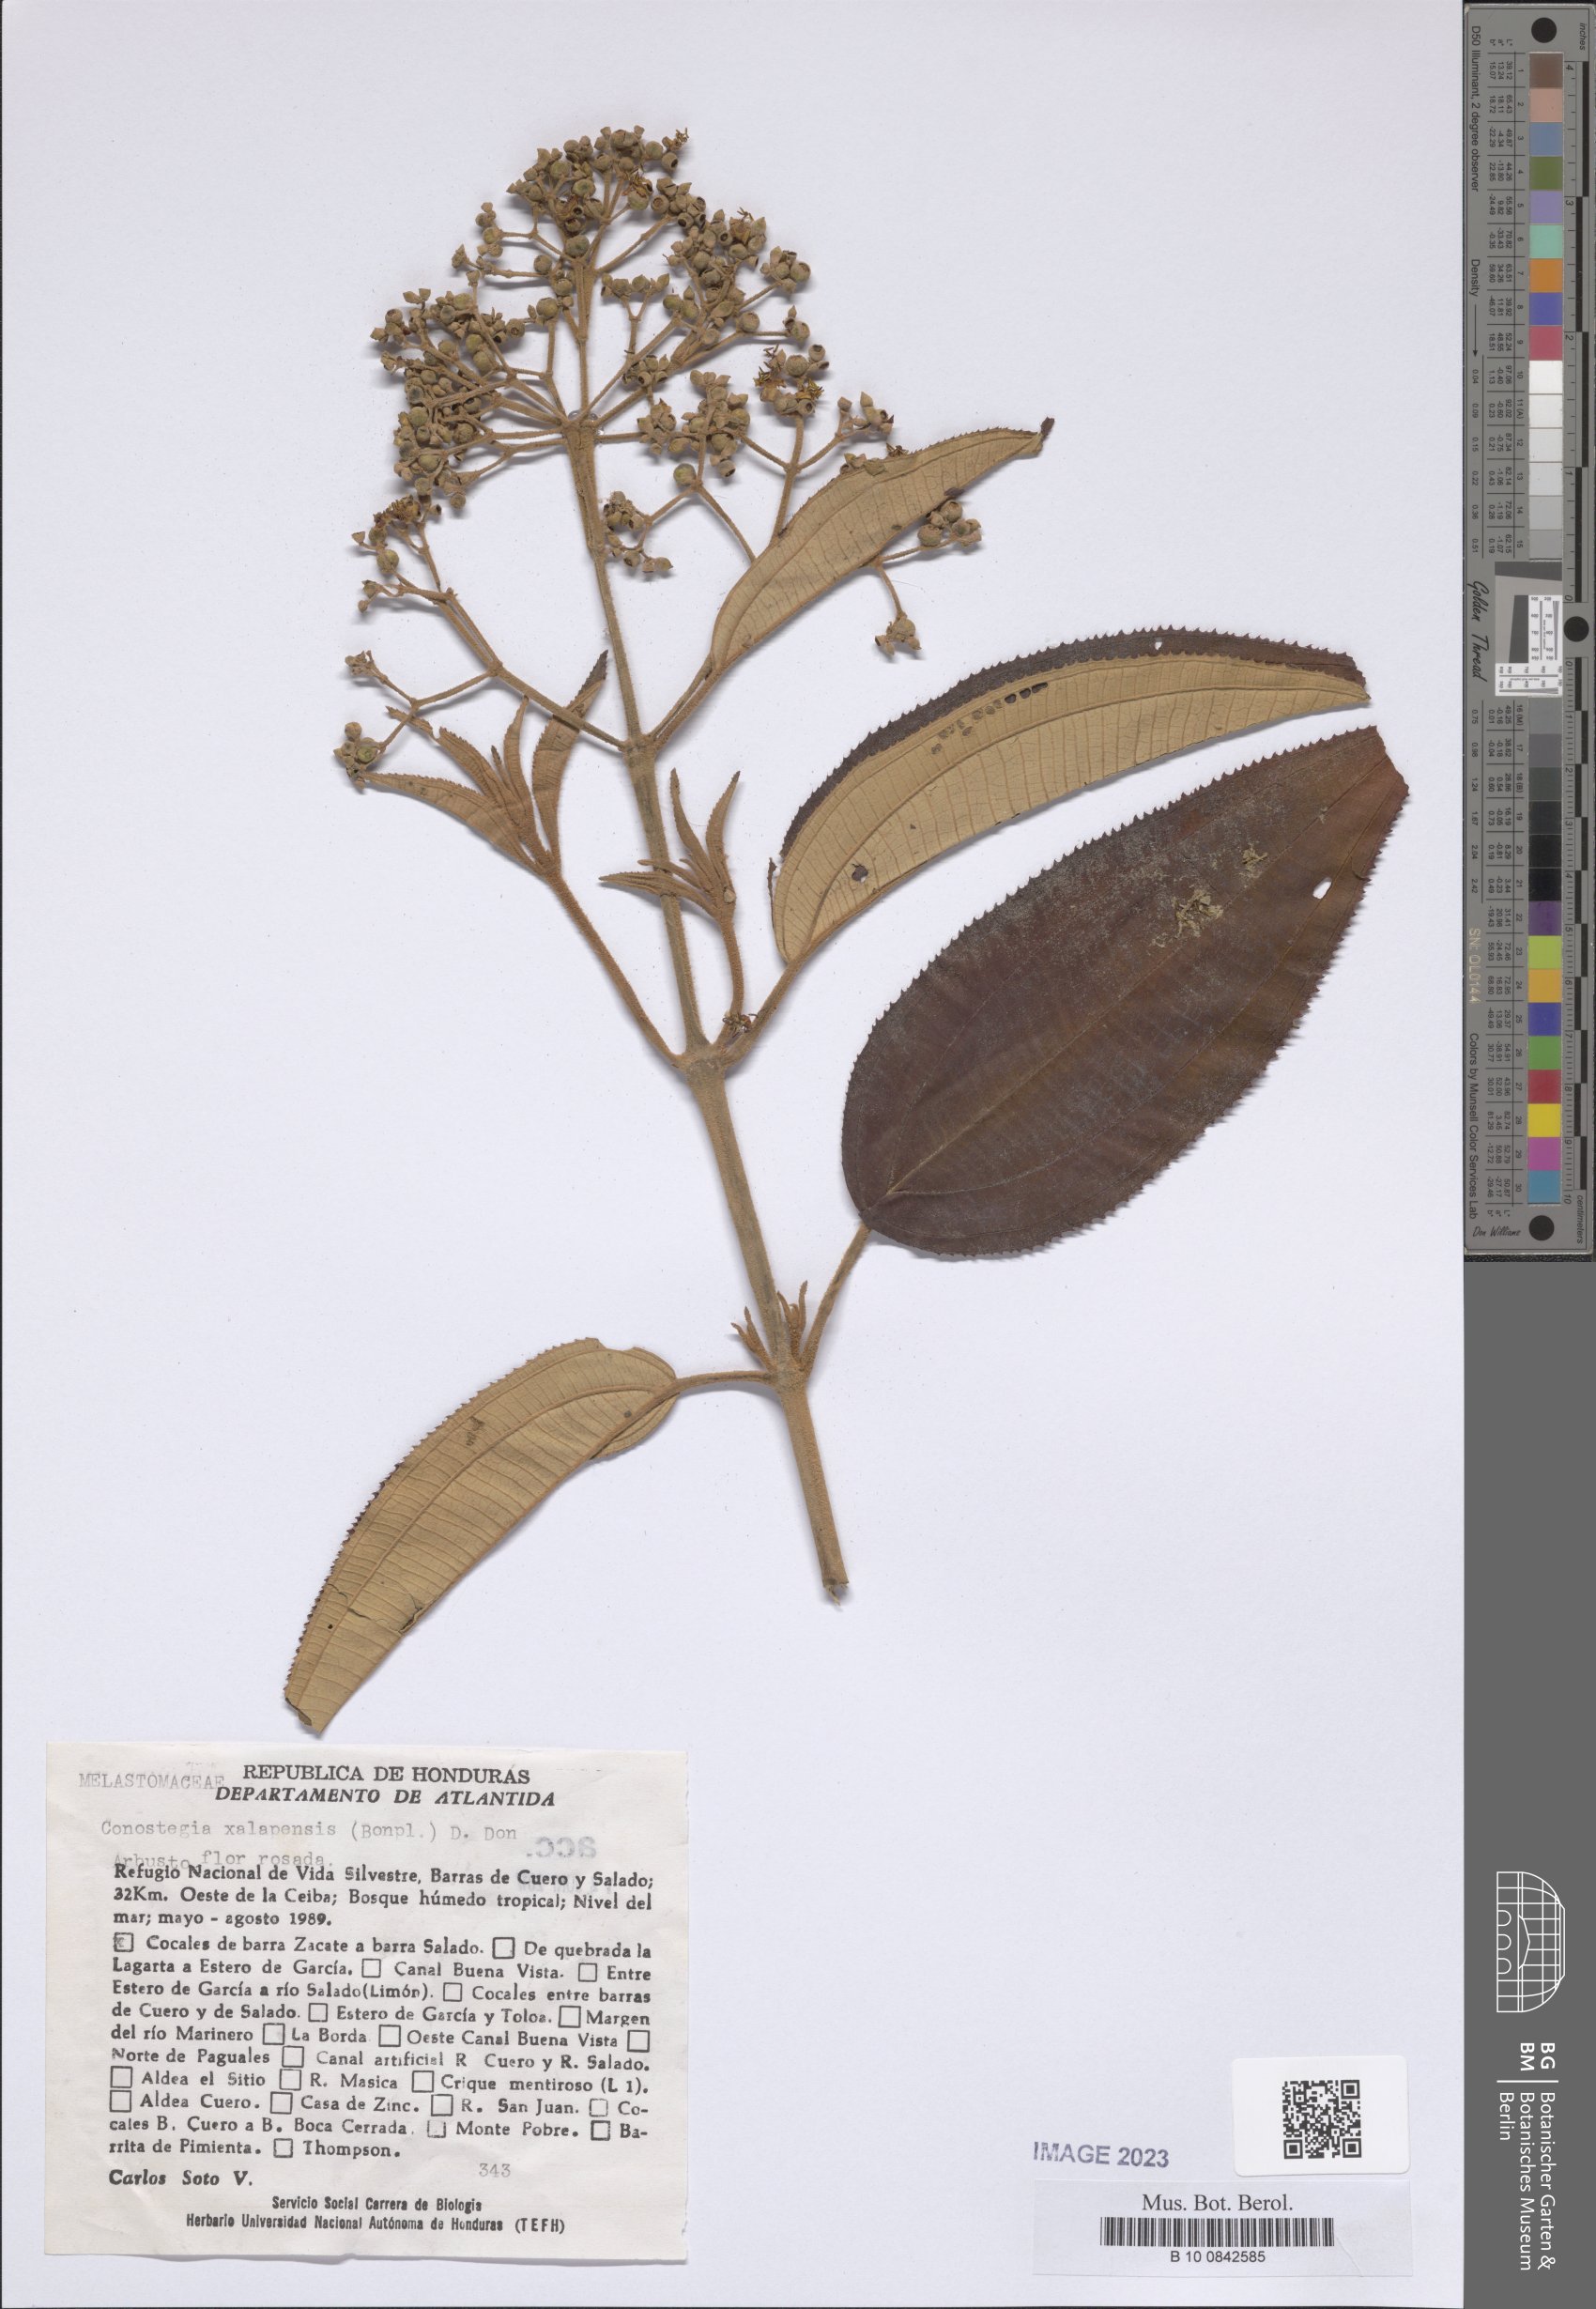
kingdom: Plantae
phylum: Tracheophyta
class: Magnoliopsida
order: Myrtales
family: Melastomataceae
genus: Miconia
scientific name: Miconia xalapensis
